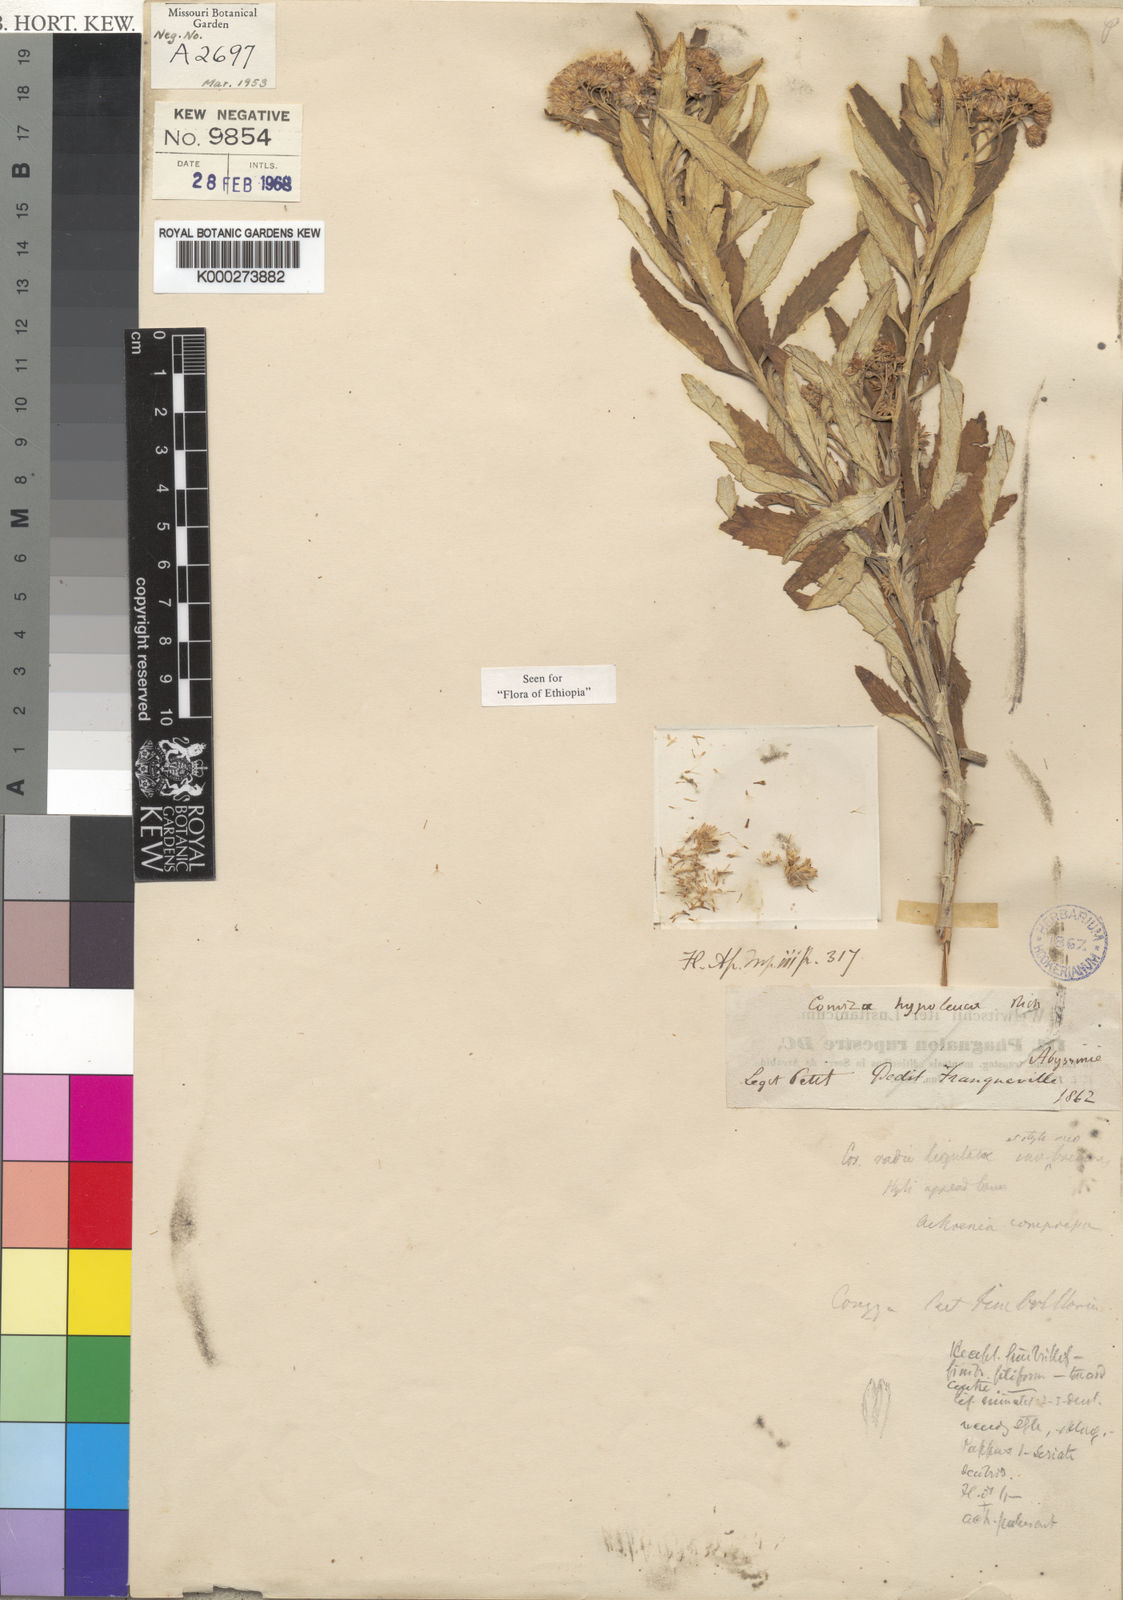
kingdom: Plantae
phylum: Tracheophyta
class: Magnoliopsida
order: Asterales
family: Asteraceae
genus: Nidorella
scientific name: Nidorella elliotii
